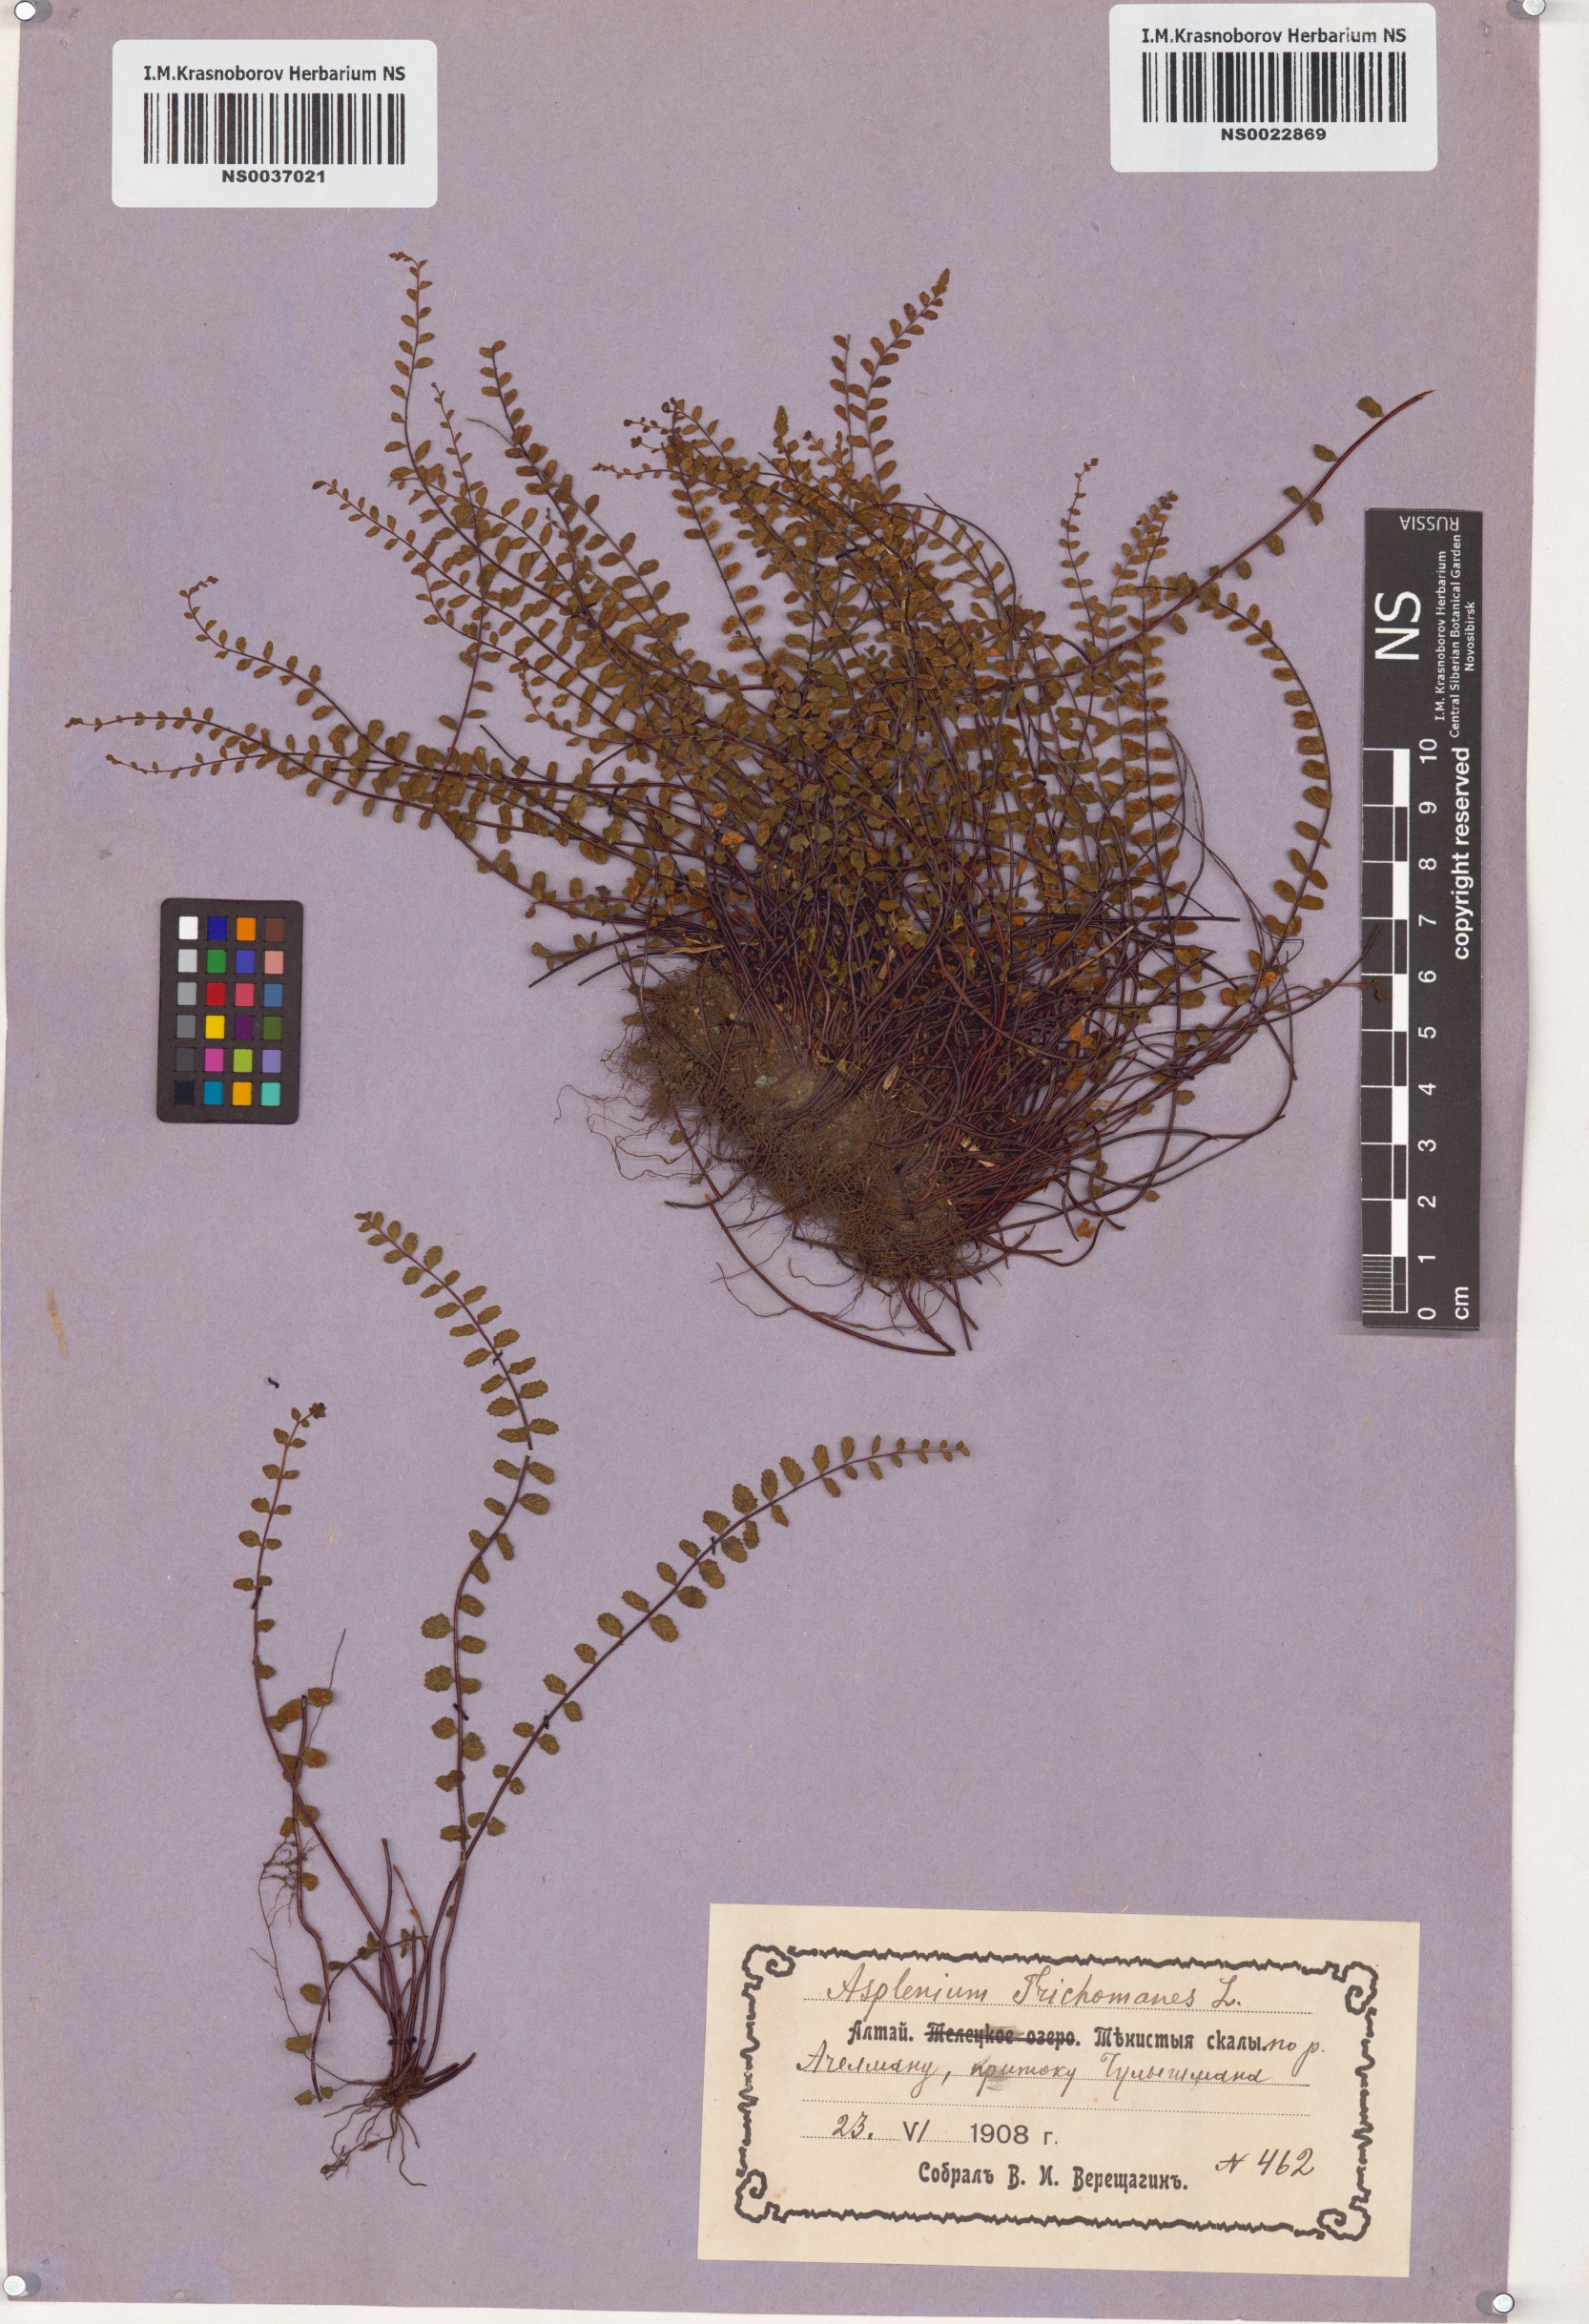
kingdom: Plantae
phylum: Tracheophyta
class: Polypodiopsida
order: Polypodiales
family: Aspleniaceae
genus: Asplenium
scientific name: Asplenium trichomanes
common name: Maidenhair spleenwort
